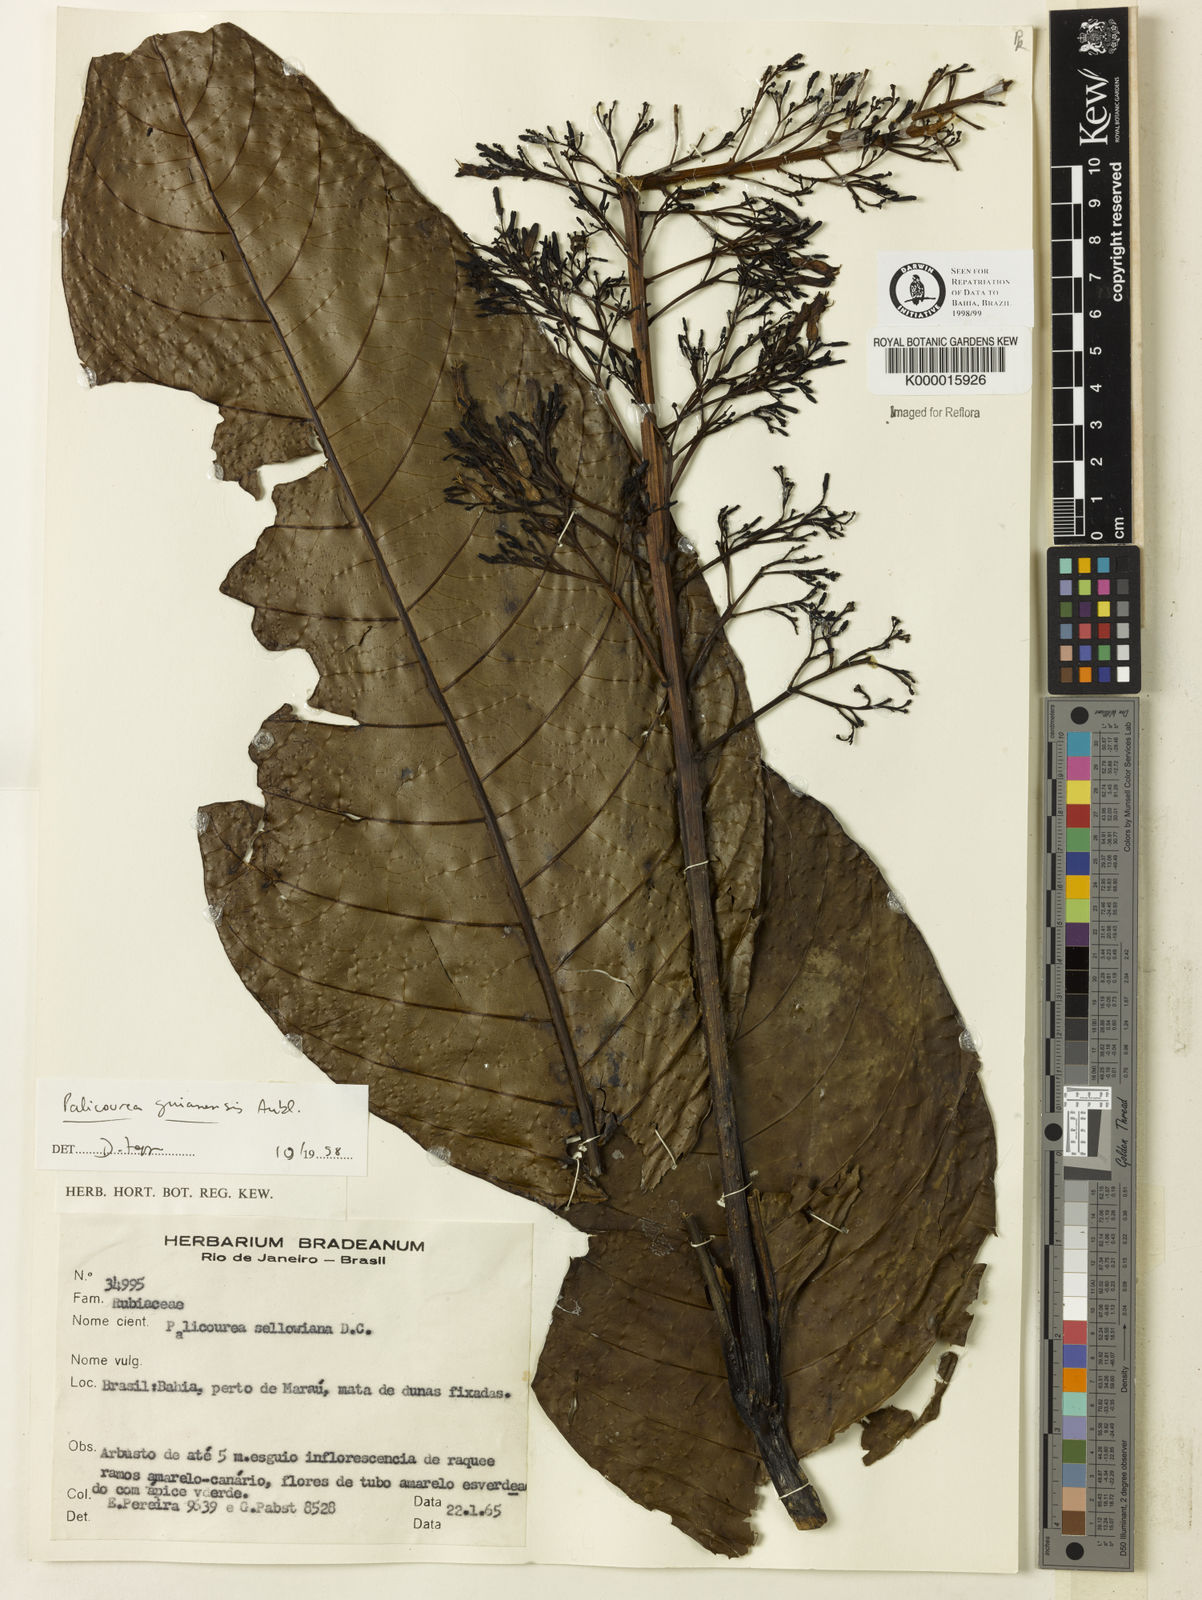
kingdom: Plantae
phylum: Tracheophyta
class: Magnoliopsida
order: Gentianales
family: Rubiaceae
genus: Palicourea
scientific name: Palicourea guianensis
